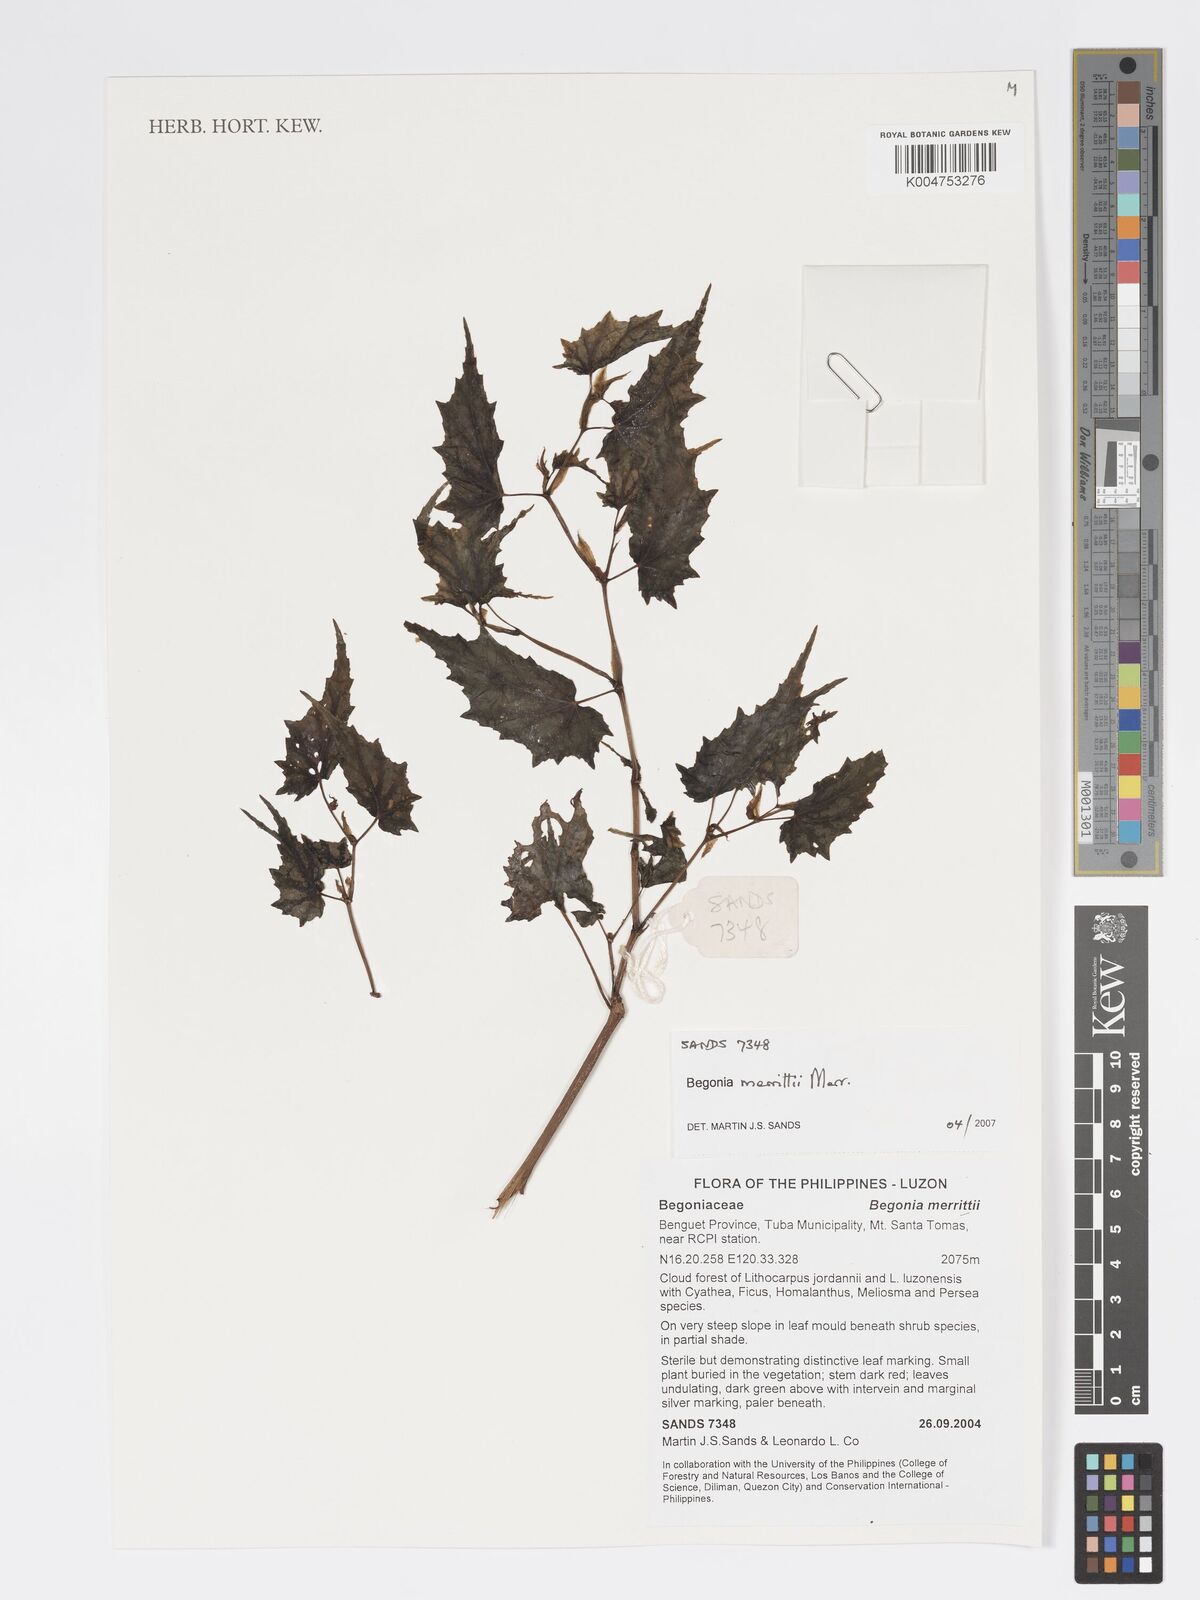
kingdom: Plantae
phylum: Tracheophyta
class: Magnoliopsida
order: Cucurbitales
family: Begoniaceae
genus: Begonia
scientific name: Begonia merrittii
